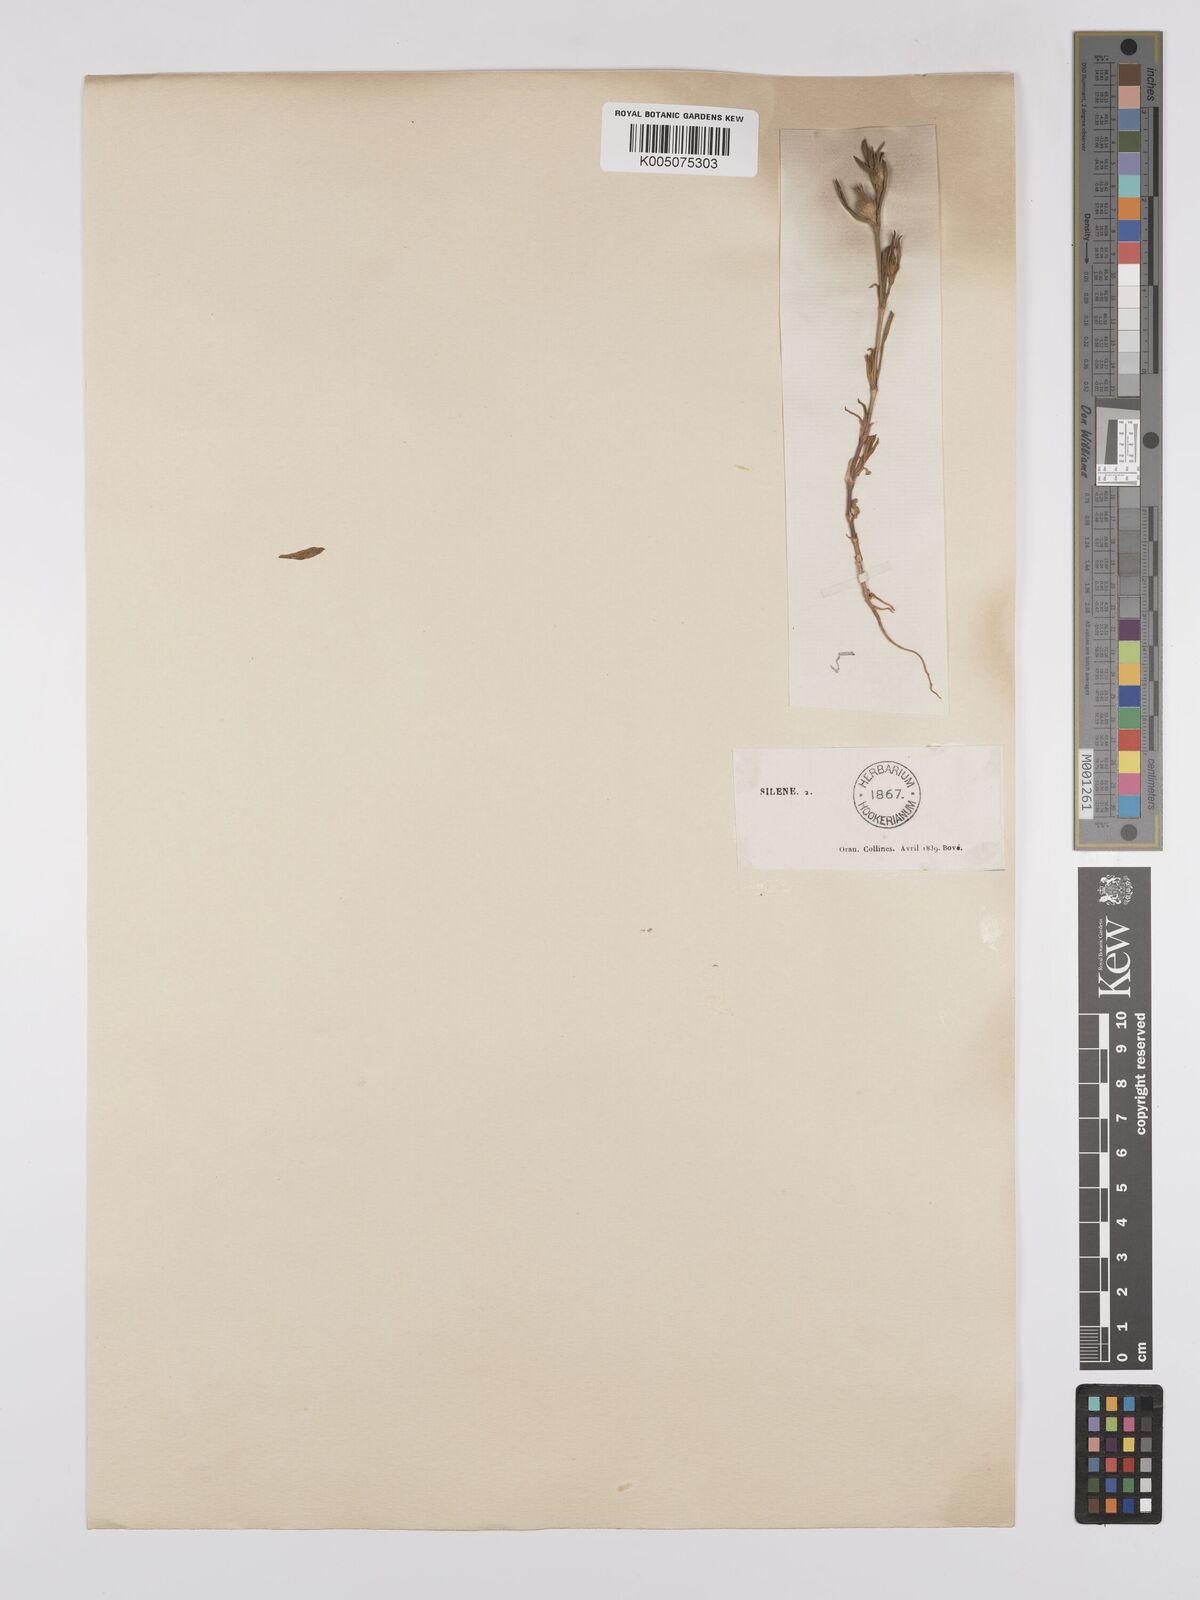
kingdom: Plantae
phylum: Tracheophyta
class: Magnoliopsida
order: Caryophyllales
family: Caryophyllaceae
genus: Silene
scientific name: Silene tridentata
